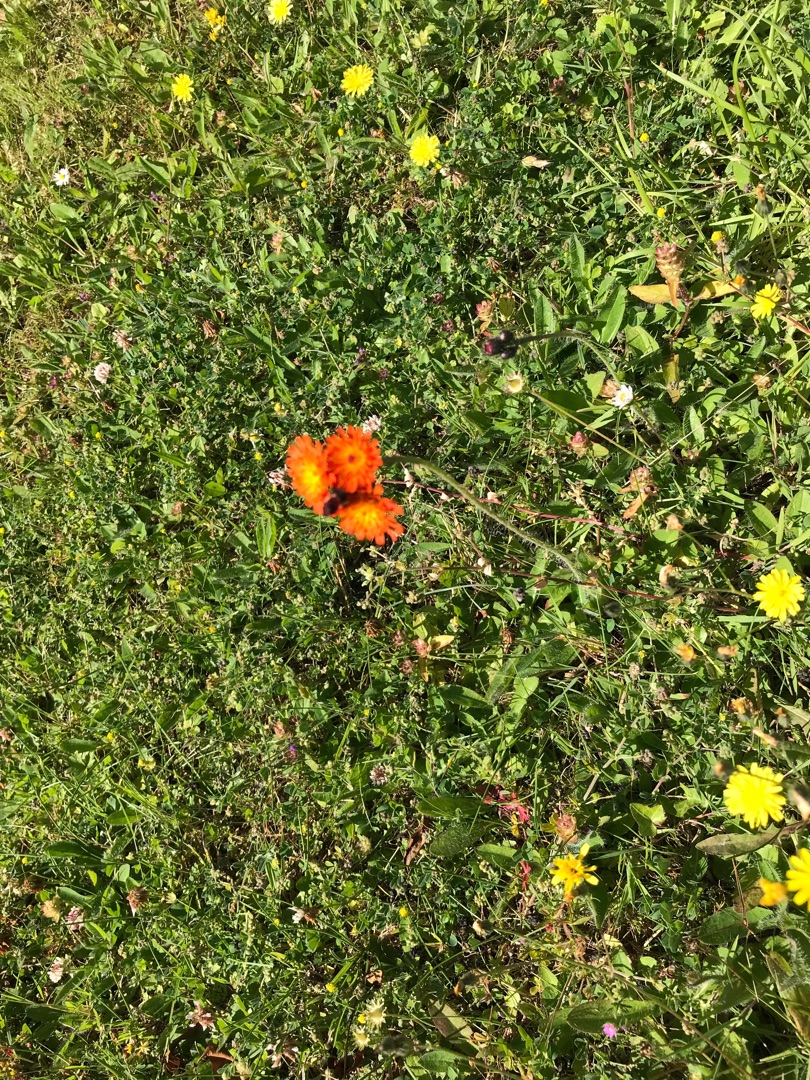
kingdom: Plantae
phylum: Tracheophyta
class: Magnoliopsida
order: Asterales
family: Asteraceae
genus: Pilosella
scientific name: Pilosella aurantiaca
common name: Pomerans-høgeurt
